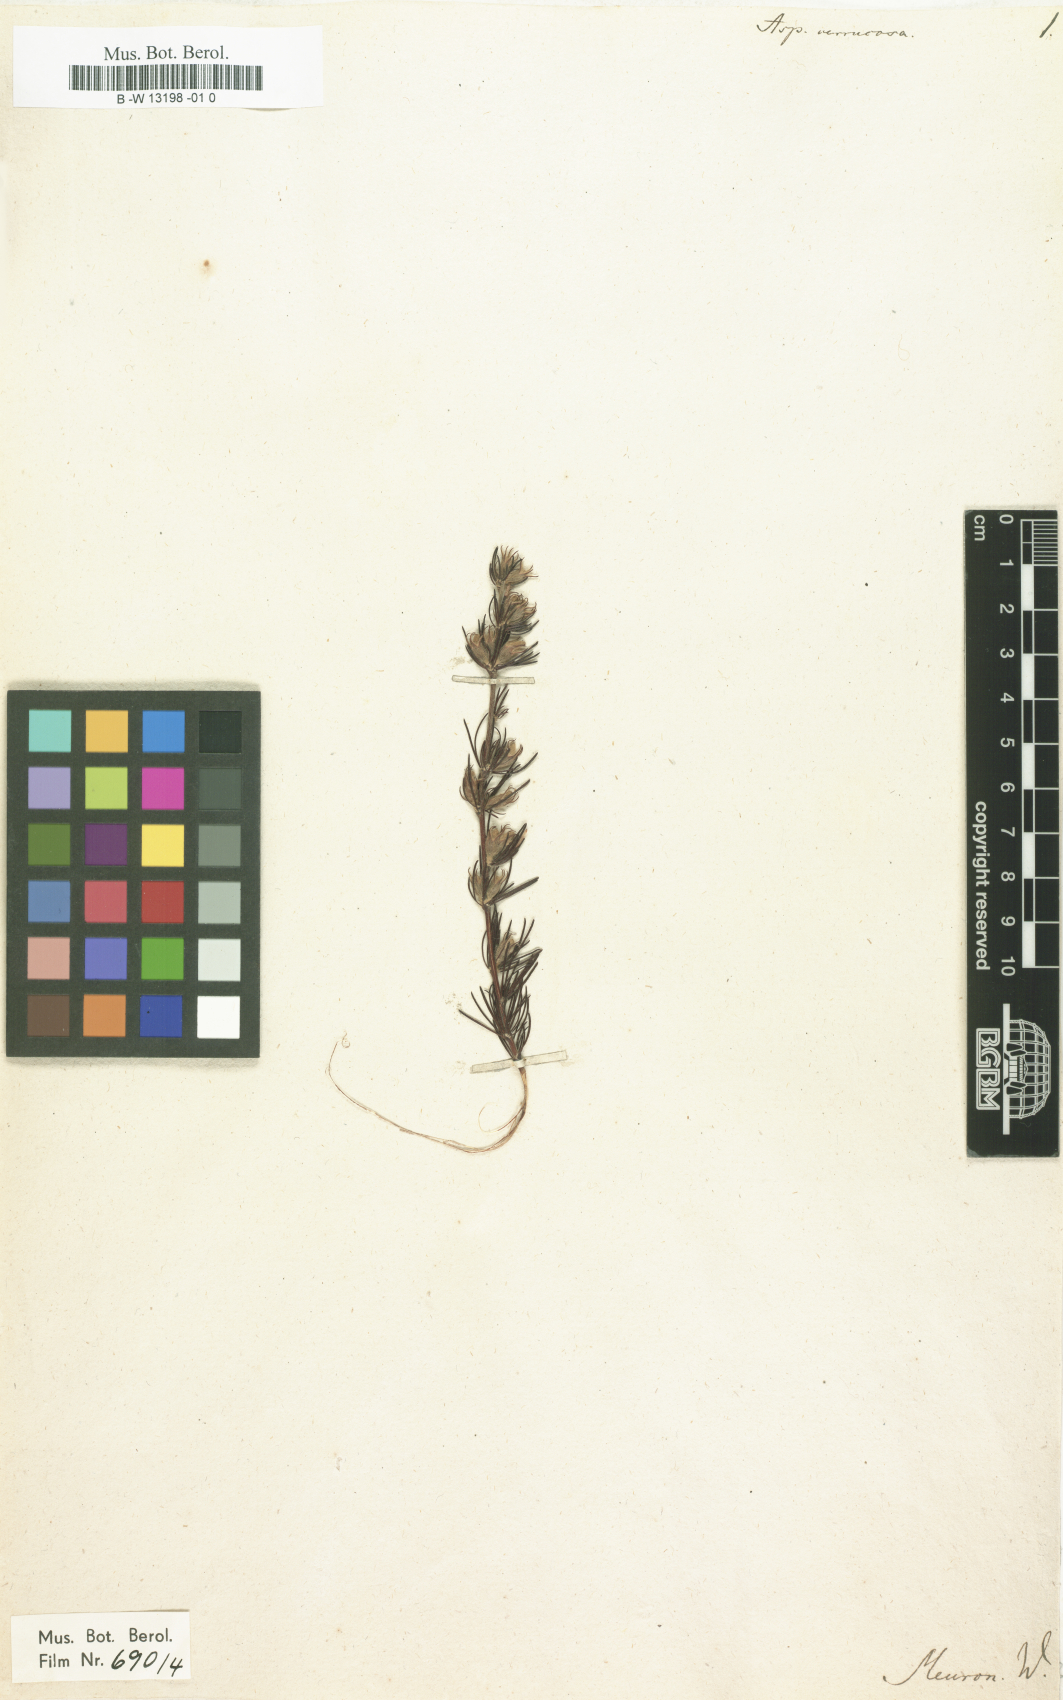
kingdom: Plantae
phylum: Tracheophyta
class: Magnoliopsida
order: Fabales
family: Fabaceae
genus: Aspalathus
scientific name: Aspalathus
